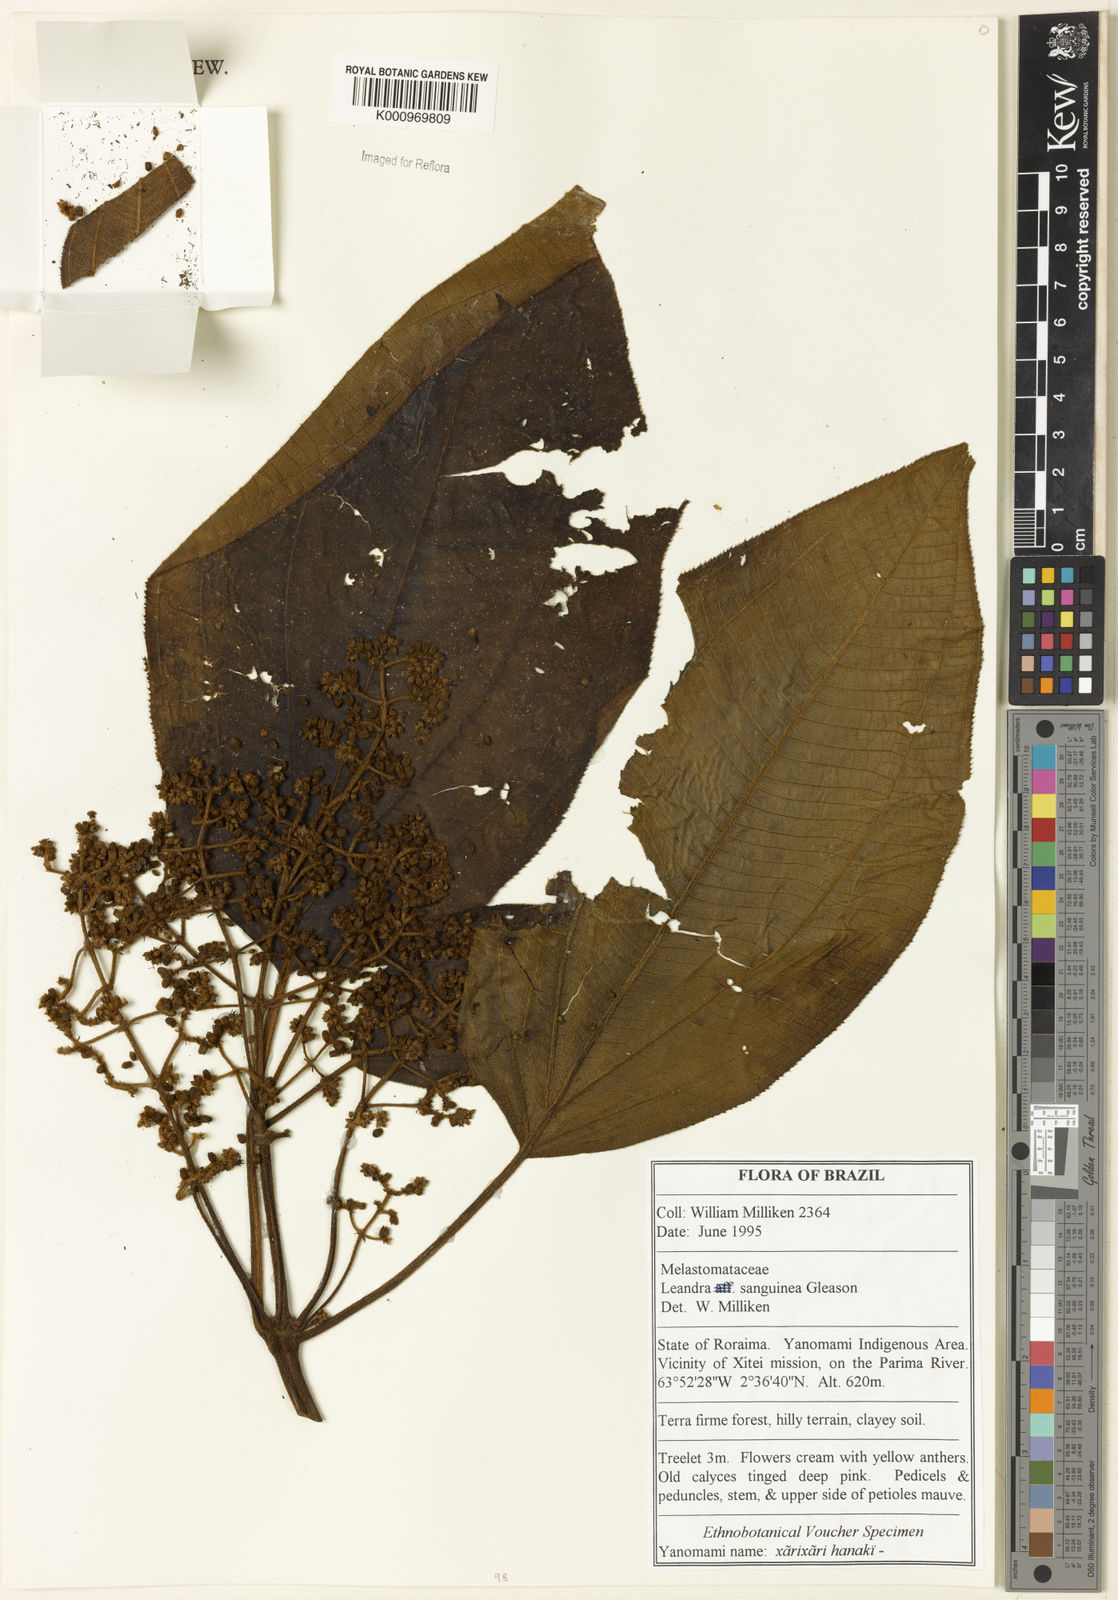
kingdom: Plantae
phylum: Tracheophyta
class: Magnoliopsida
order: Myrtales
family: Melastomataceae
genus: Miconia
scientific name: Miconia leasanguinea
